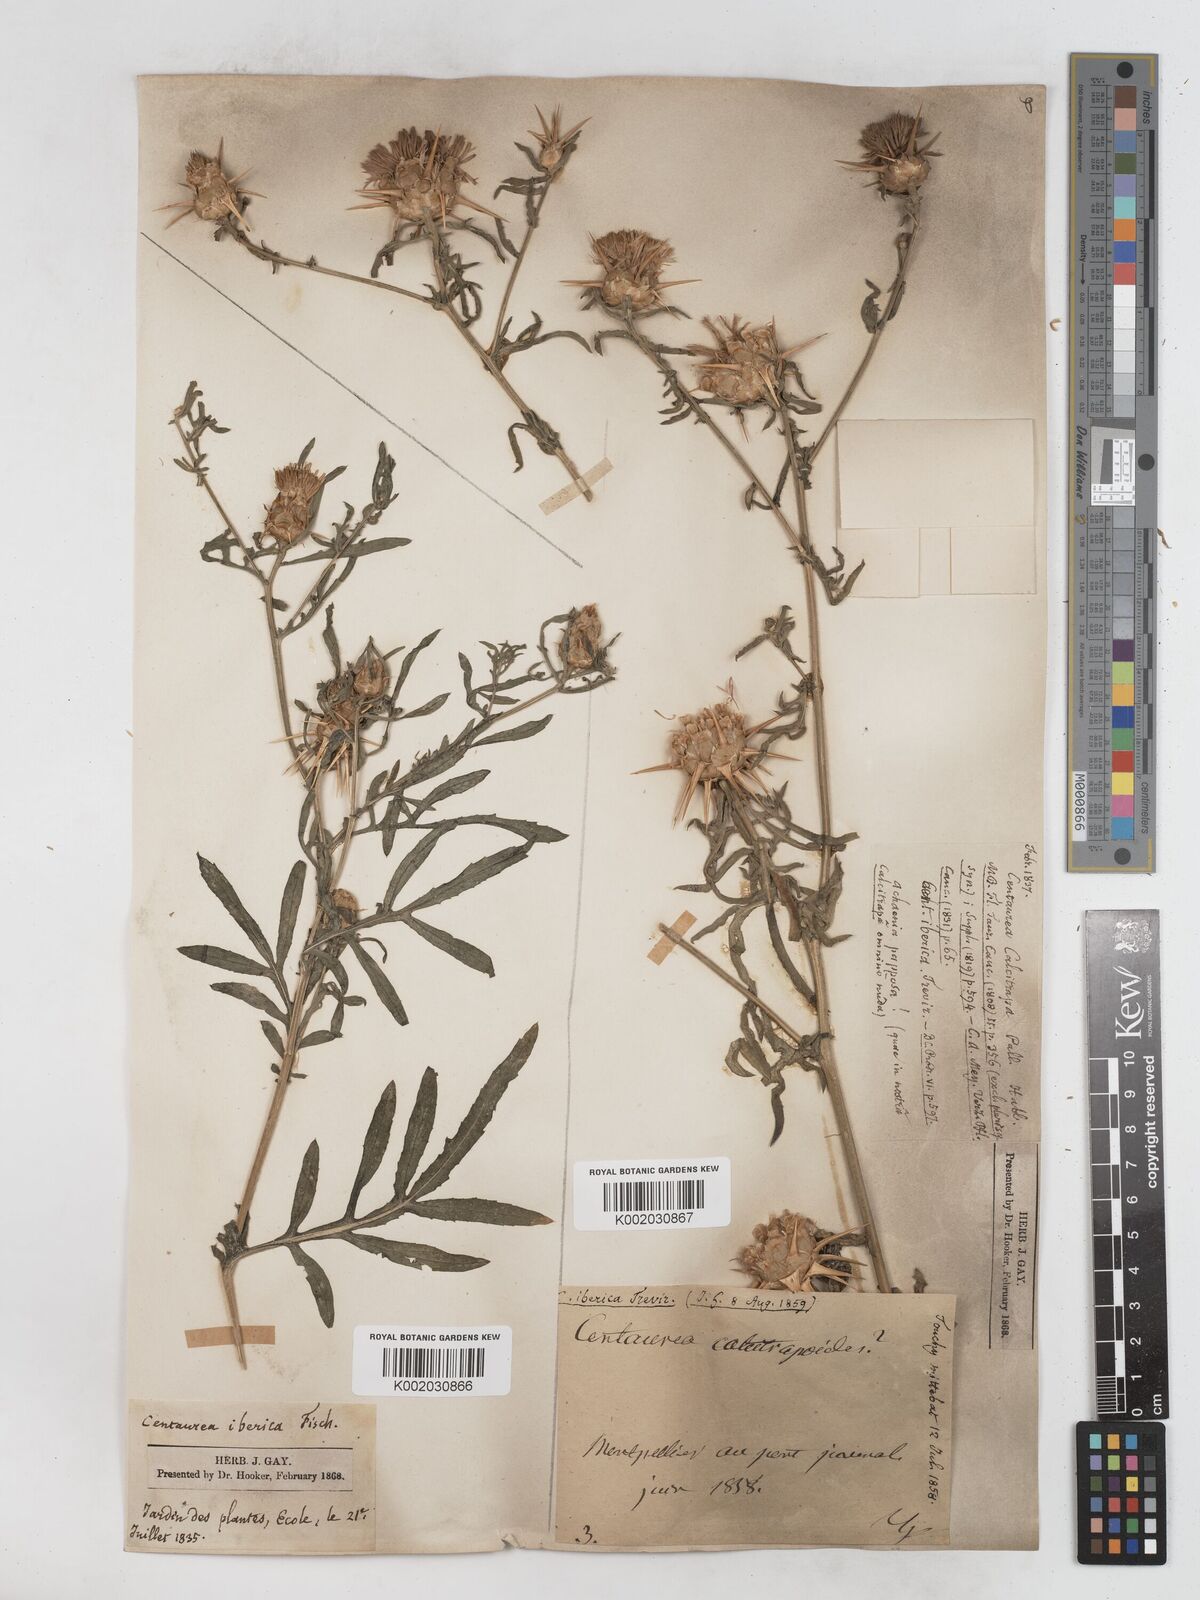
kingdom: Plantae
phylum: Tracheophyta
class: Magnoliopsida
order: Asterales
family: Asteraceae
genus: Centaurea
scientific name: Centaurea iberica
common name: Iberian knapweed
